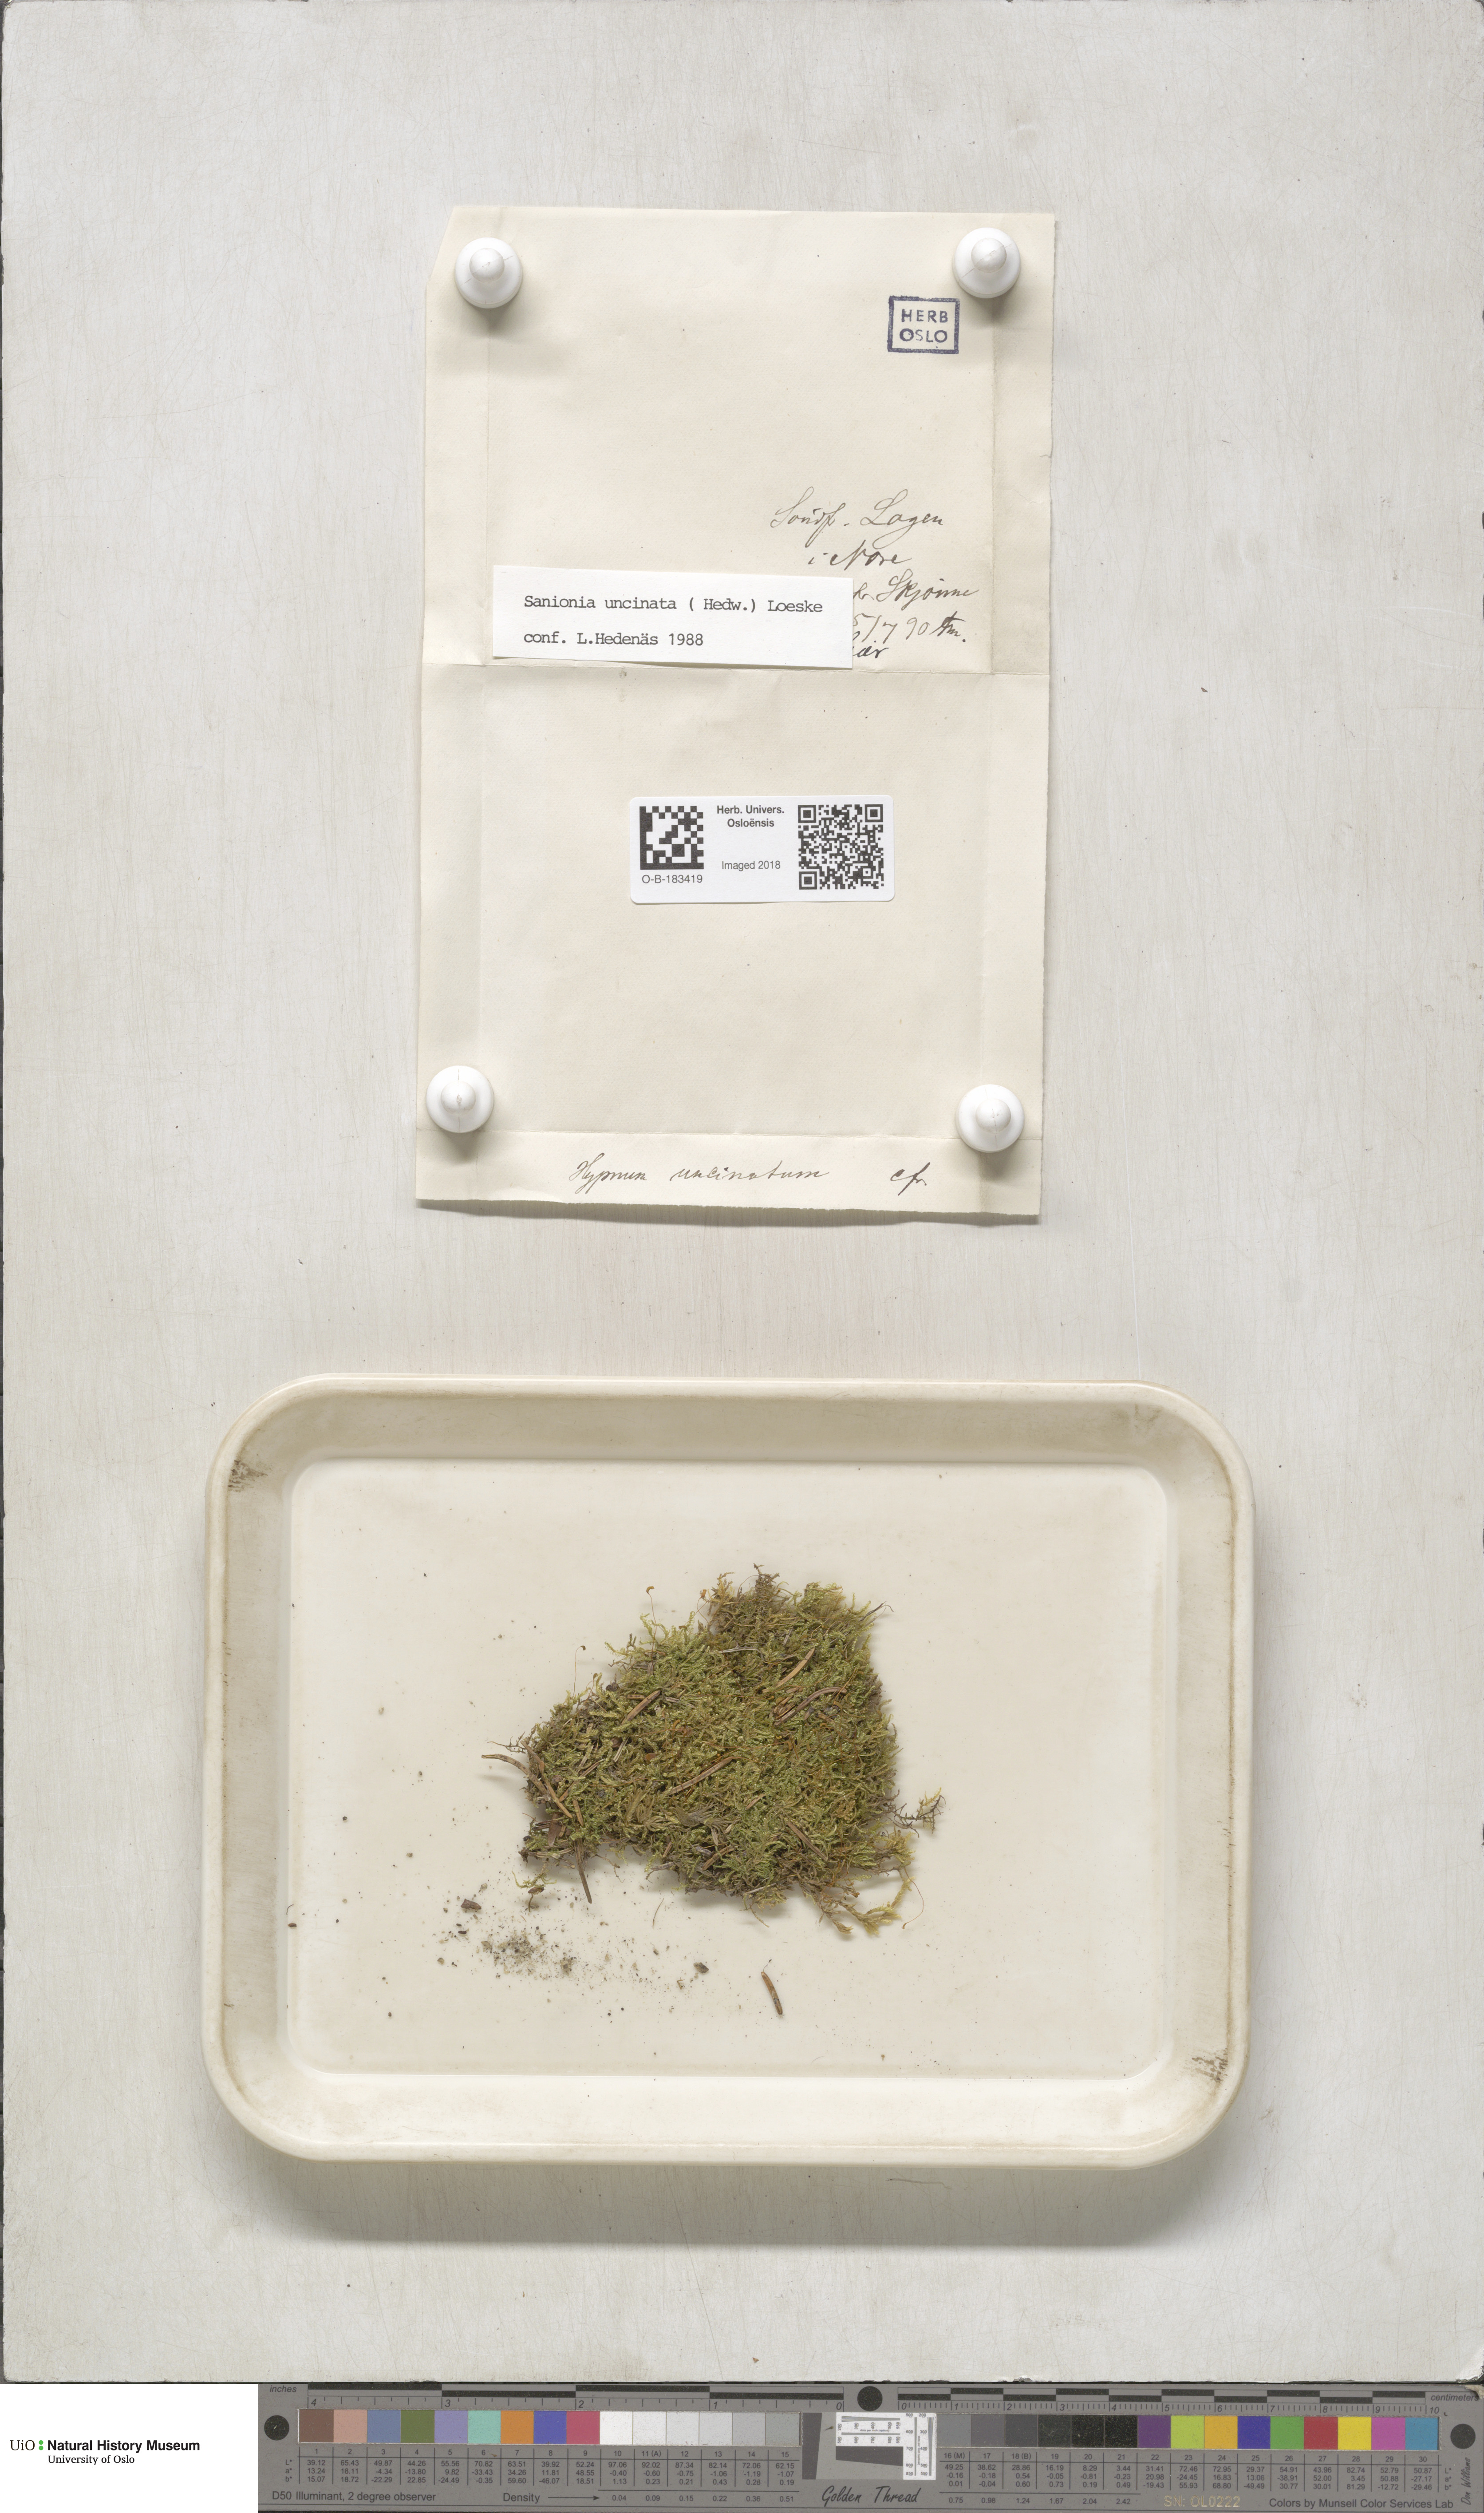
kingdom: Plantae
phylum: Bryophyta
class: Bryopsida
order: Hypnales
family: Scorpidiaceae
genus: Sanionia
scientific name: Sanionia uncinata
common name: Sickle moss
